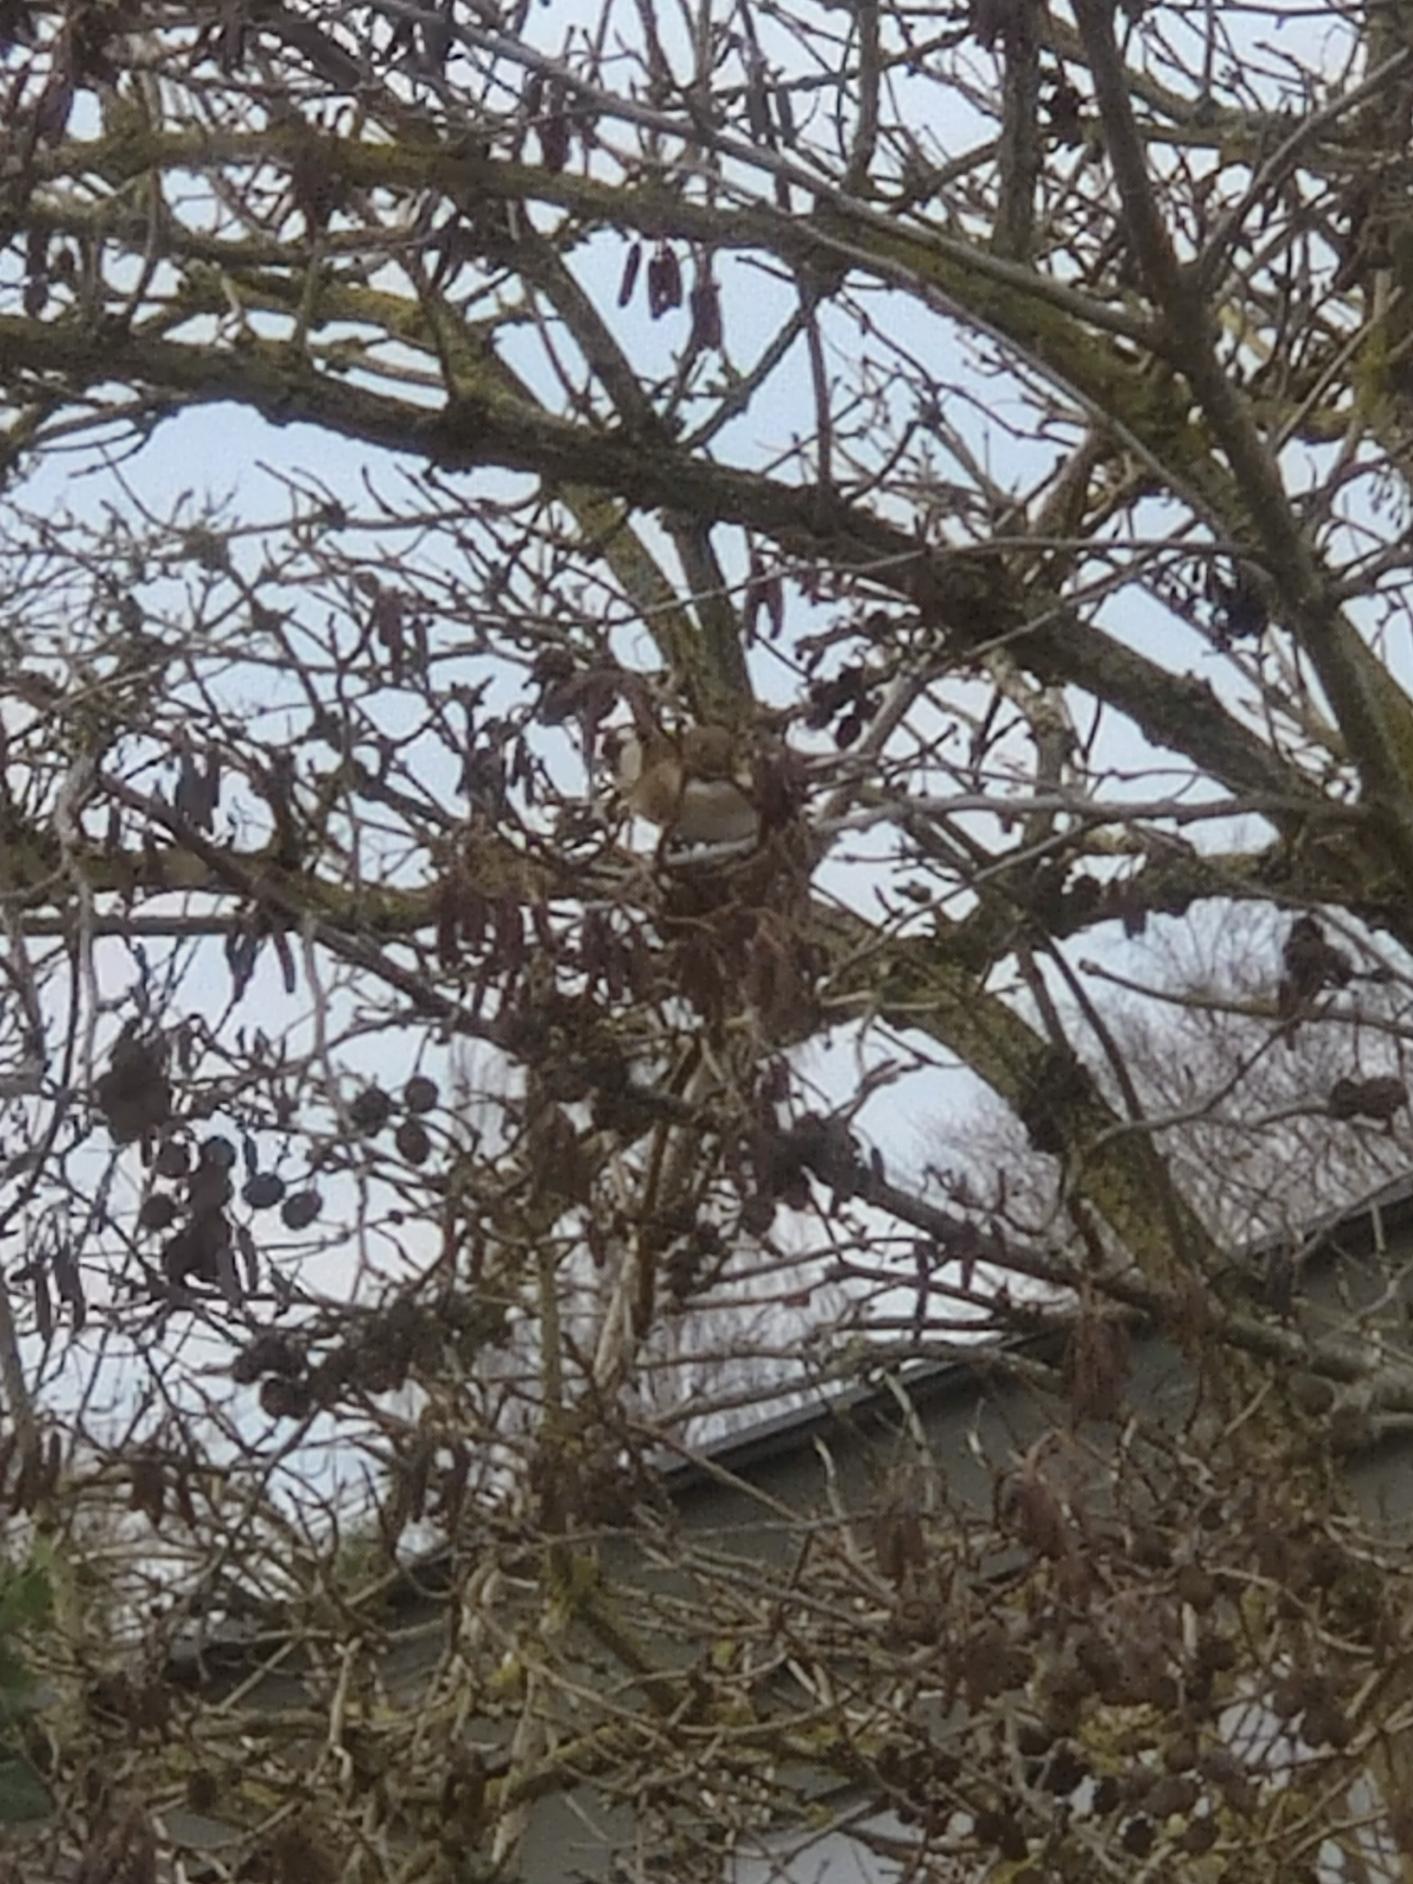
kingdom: Animalia
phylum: Chordata
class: Aves
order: Passeriformes
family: Fringillidae
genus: Carduelis
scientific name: Carduelis carduelis
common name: Stillits
